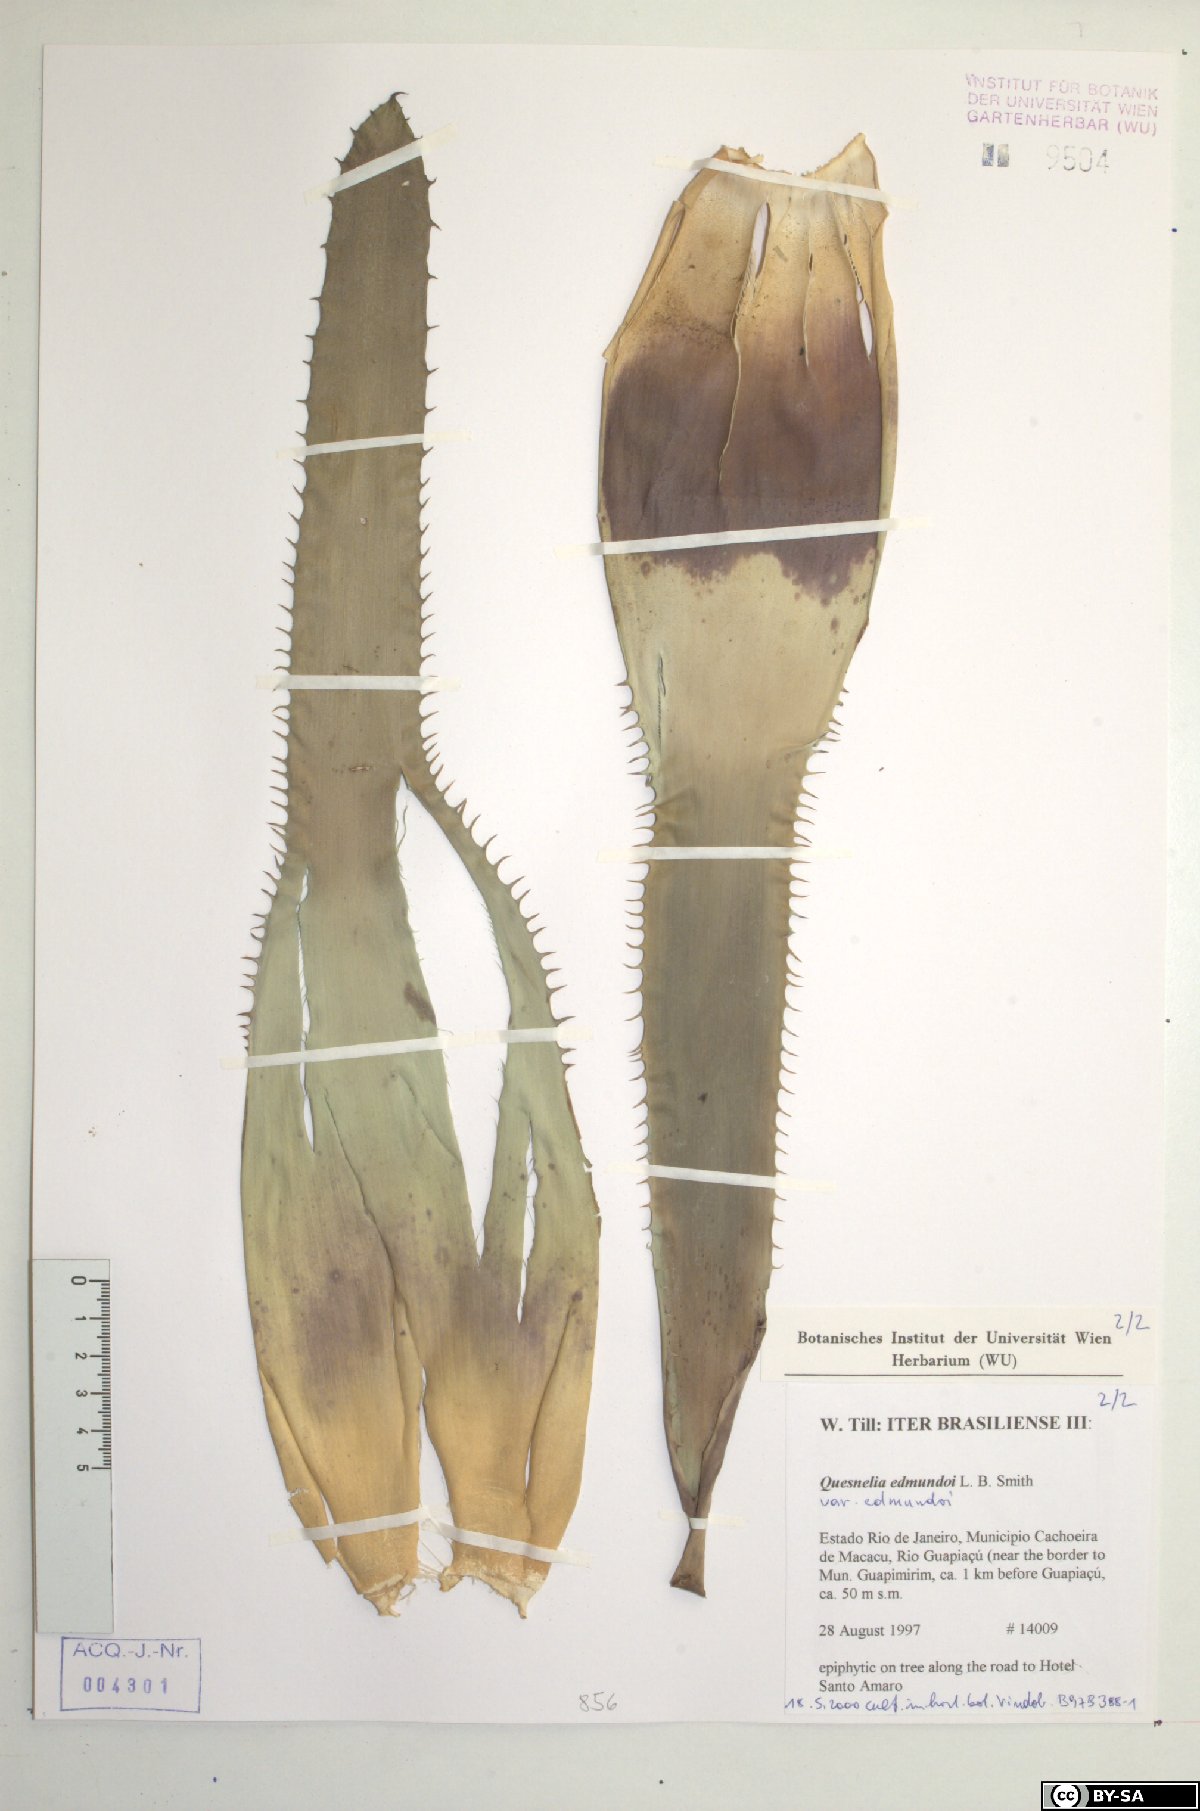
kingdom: Plantae
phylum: Tracheophyta
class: Liliopsida
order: Poales
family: Bromeliaceae
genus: Quesnelia
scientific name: Quesnelia edmundoi
